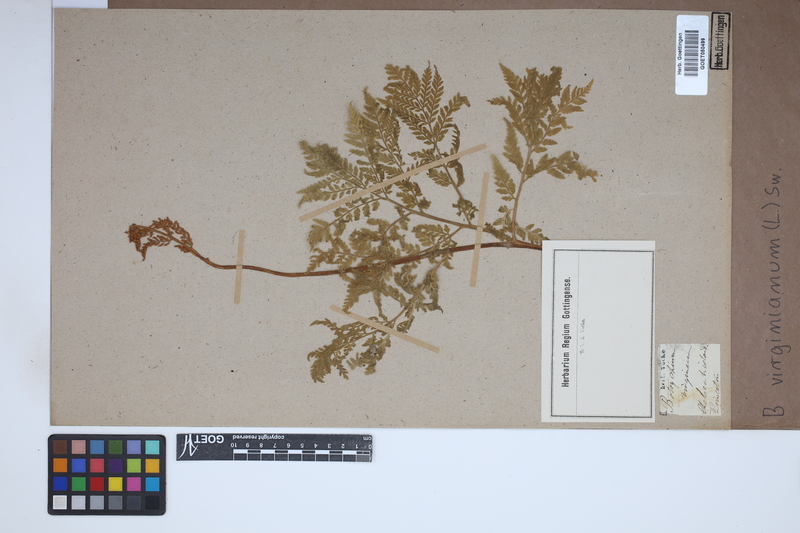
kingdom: Plantae
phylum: Tracheophyta
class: Polypodiopsida
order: Ophioglossales
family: Ophioglossaceae
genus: Botrychium
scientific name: Botrychium virginianum
